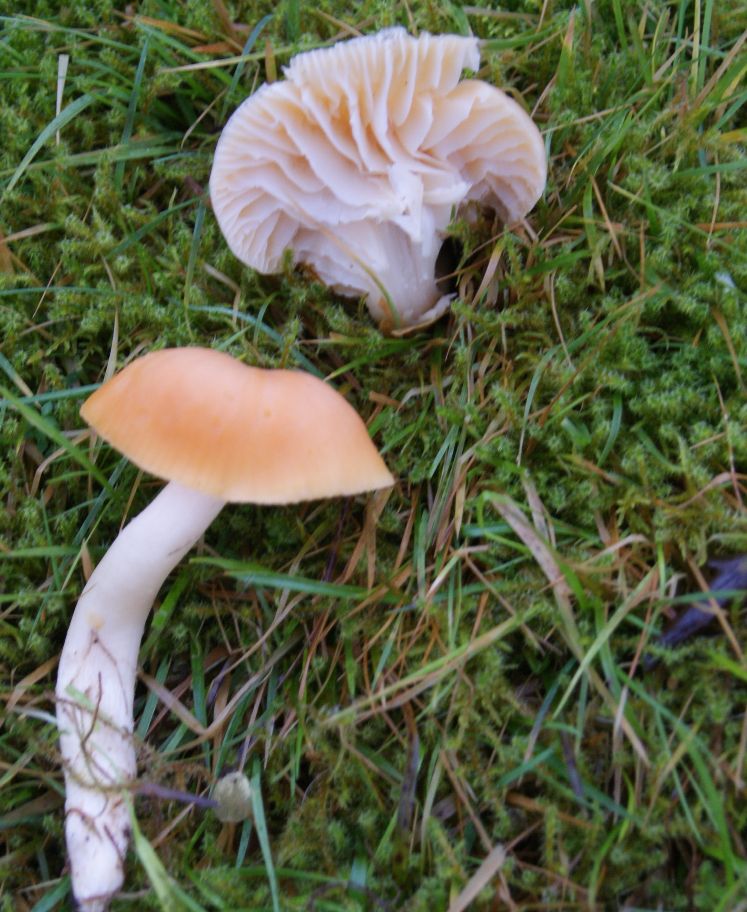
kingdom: Fungi
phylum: Basidiomycota
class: Agaricomycetes
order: Agaricales
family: Hygrophoraceae
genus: Cuphophyllus
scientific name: Cuphophyllus pratensis
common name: eng-vokshat
